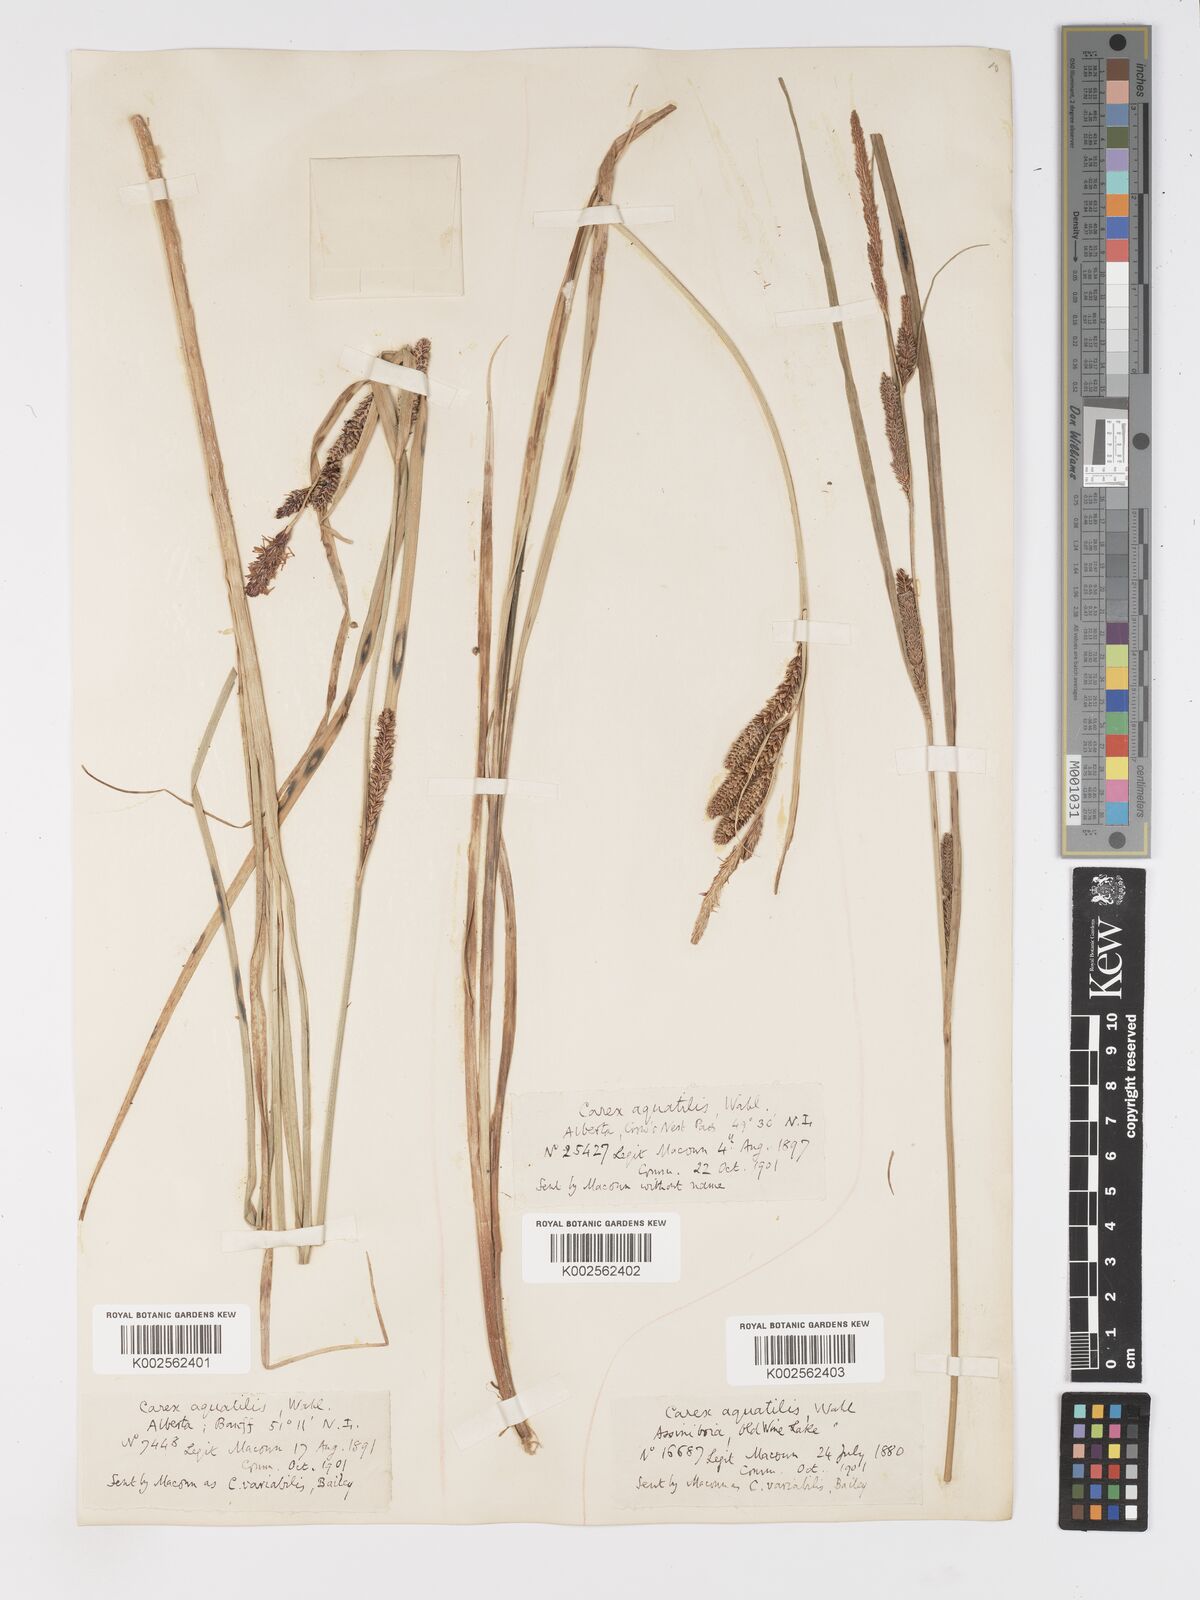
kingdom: Plantae
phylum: Tracheophyta
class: Liliopsida
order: Poales
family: Cyperaceae
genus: Carex
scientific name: Carex aquatilis
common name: Water sedge
